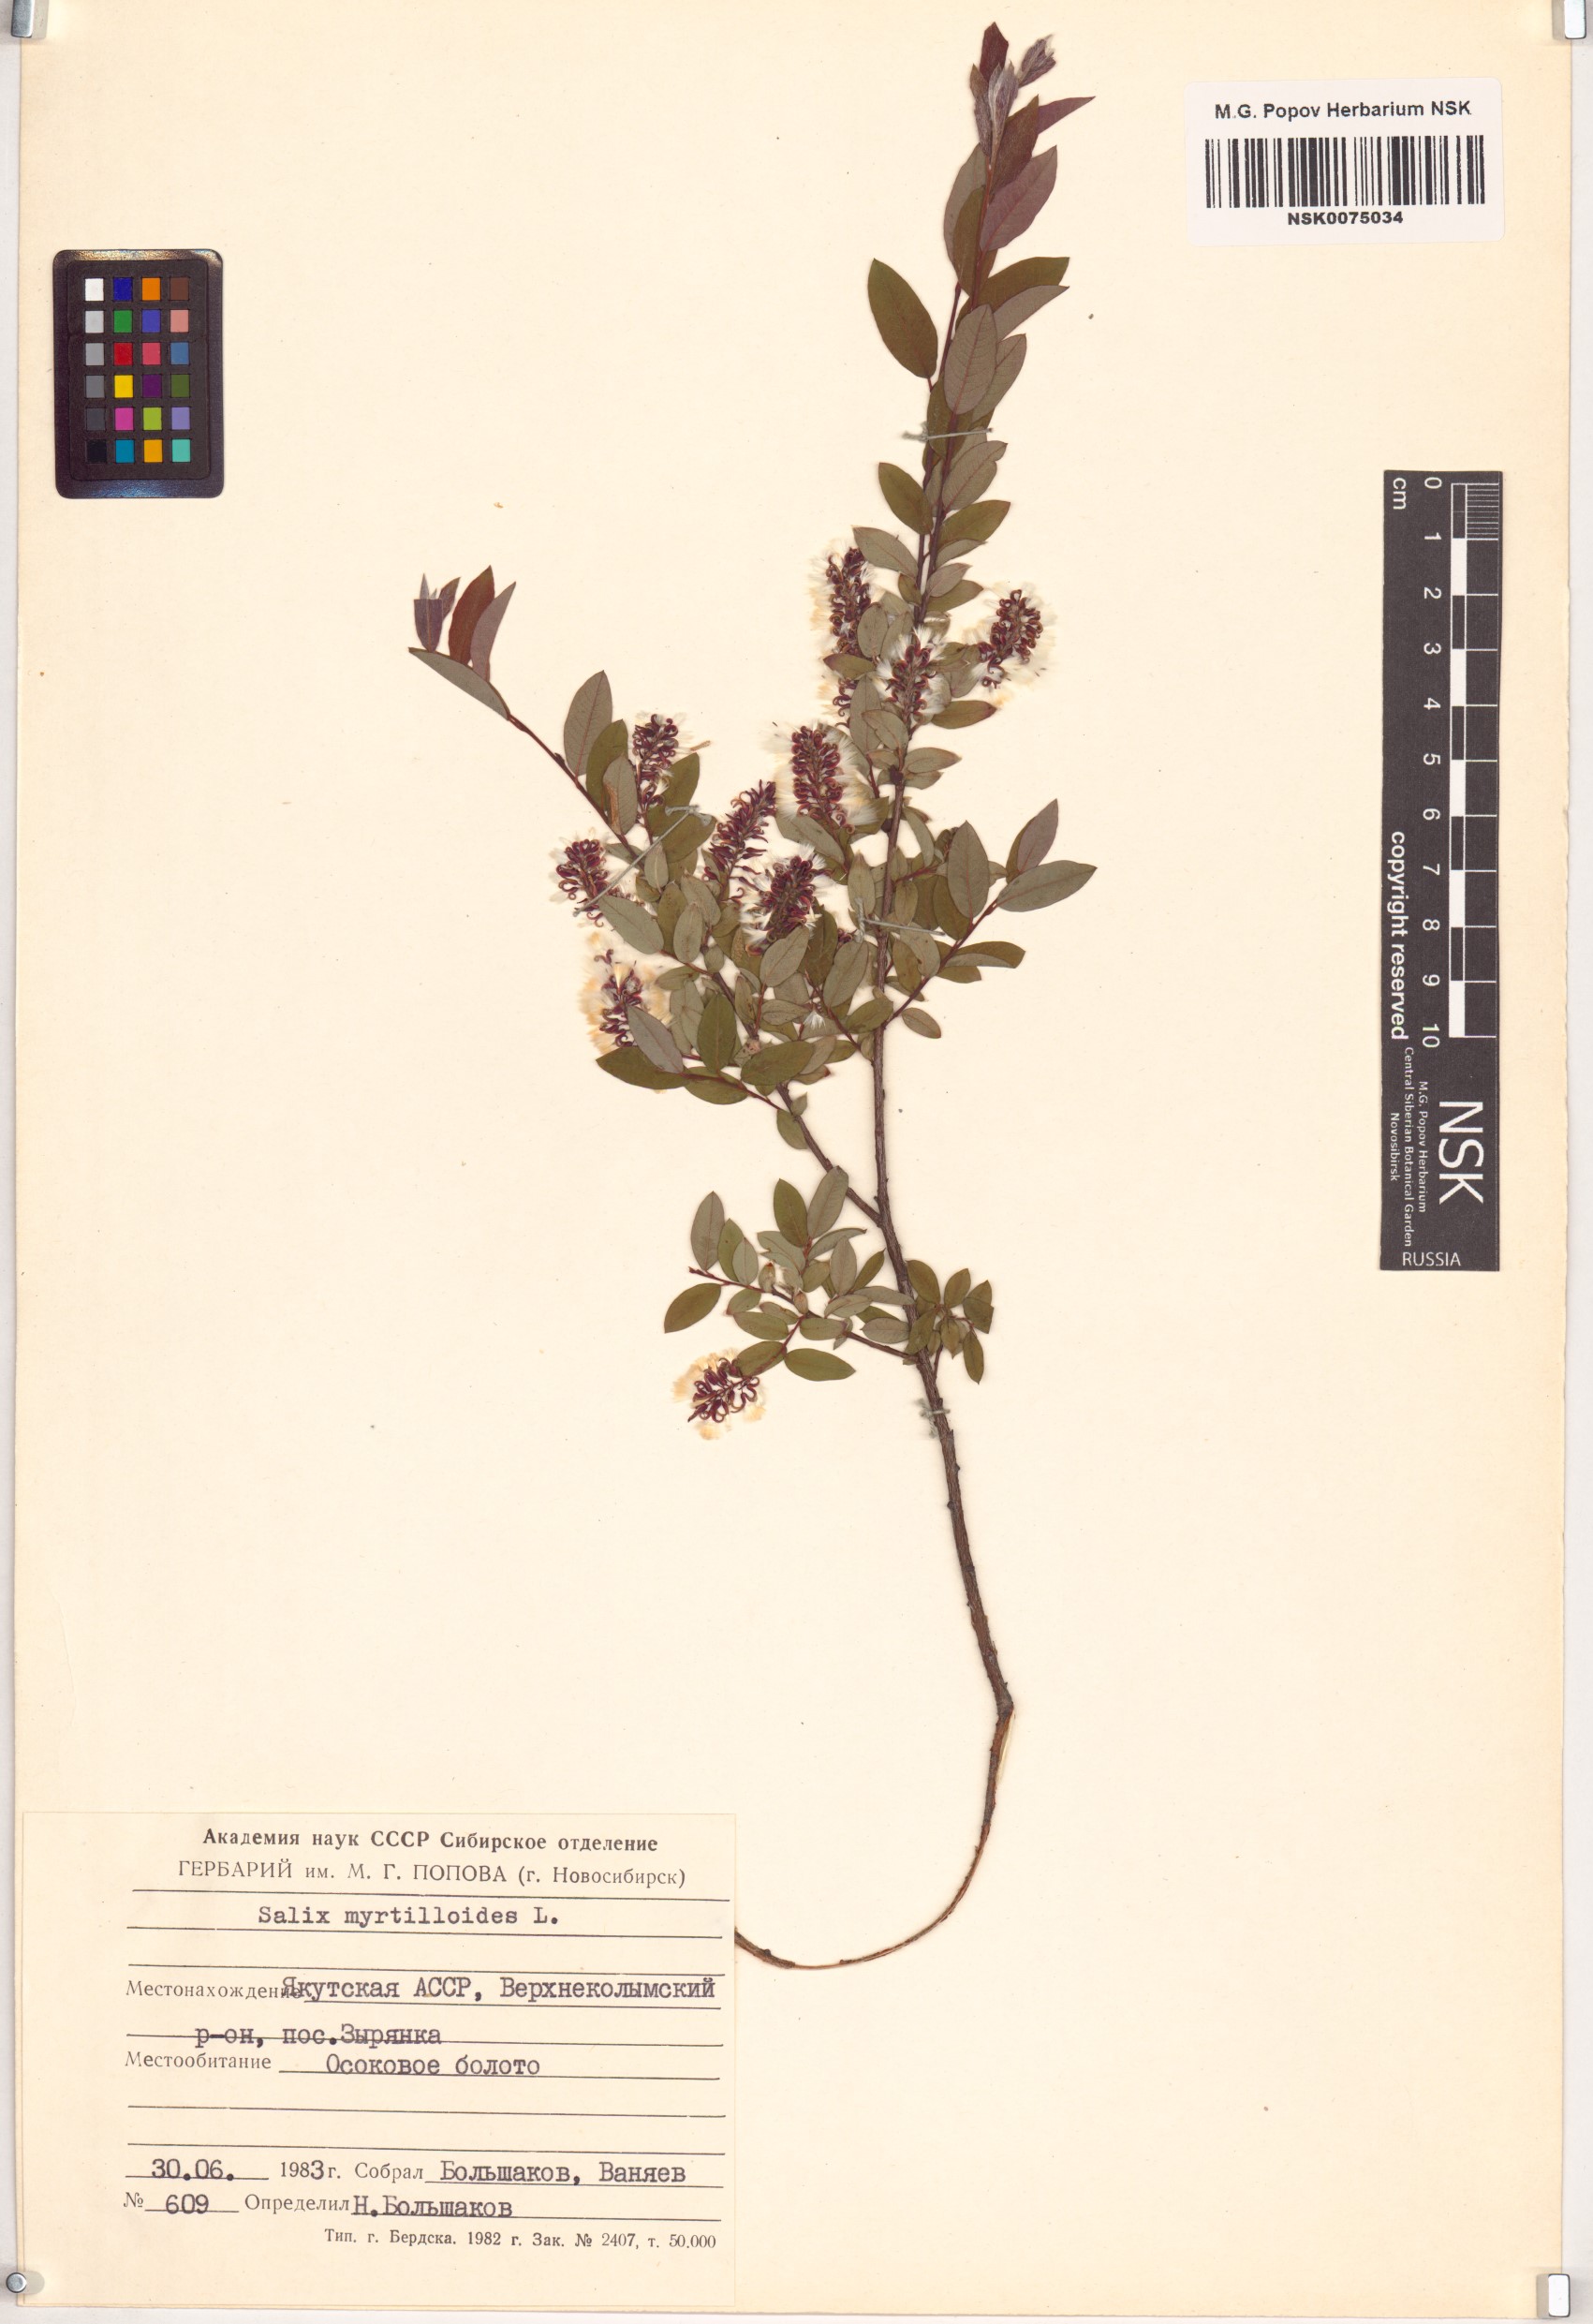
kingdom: Plantae
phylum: Tracheophyta
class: Magnoliopsida
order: Malpighiales
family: Salicaceae
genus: Salix
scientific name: Salix myrtilloides
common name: Myrtle-leaved willow
